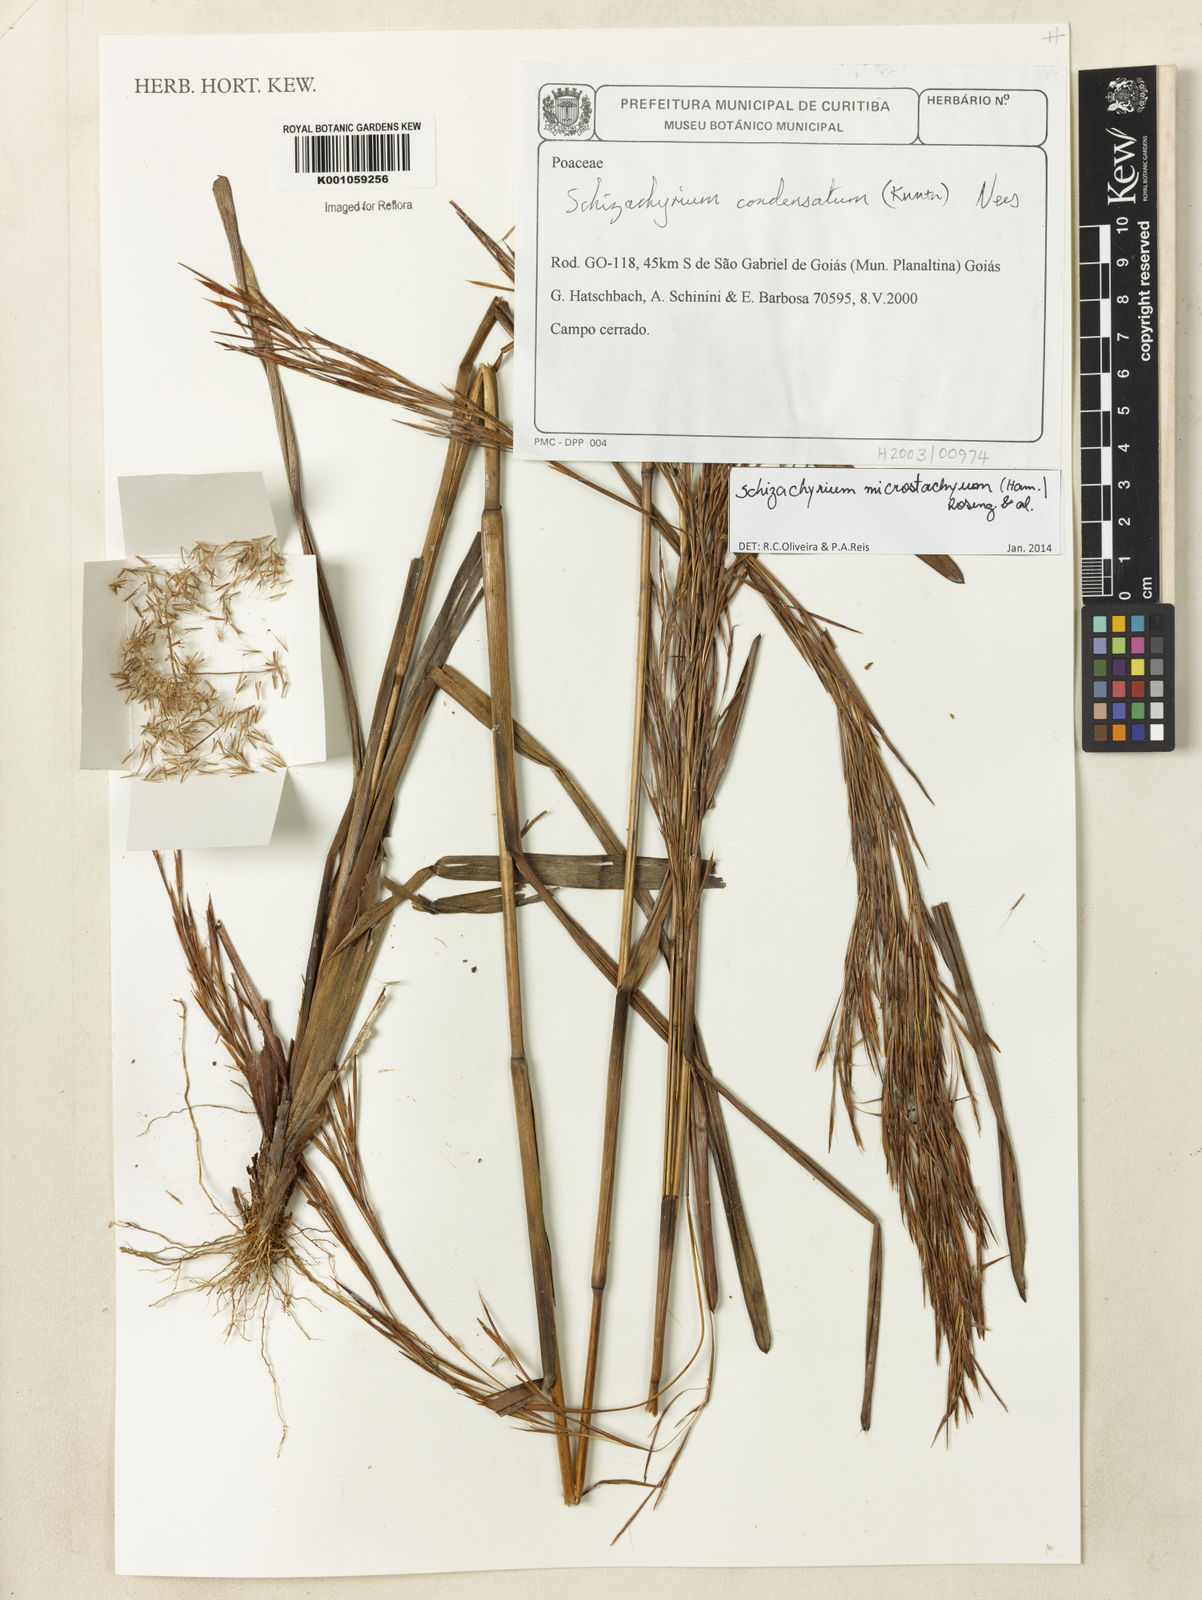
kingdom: Plantae
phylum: Tracheophyta
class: Liliopsida
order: Poales
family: Poaceae
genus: Schizachyrium
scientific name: Schizachyrium
